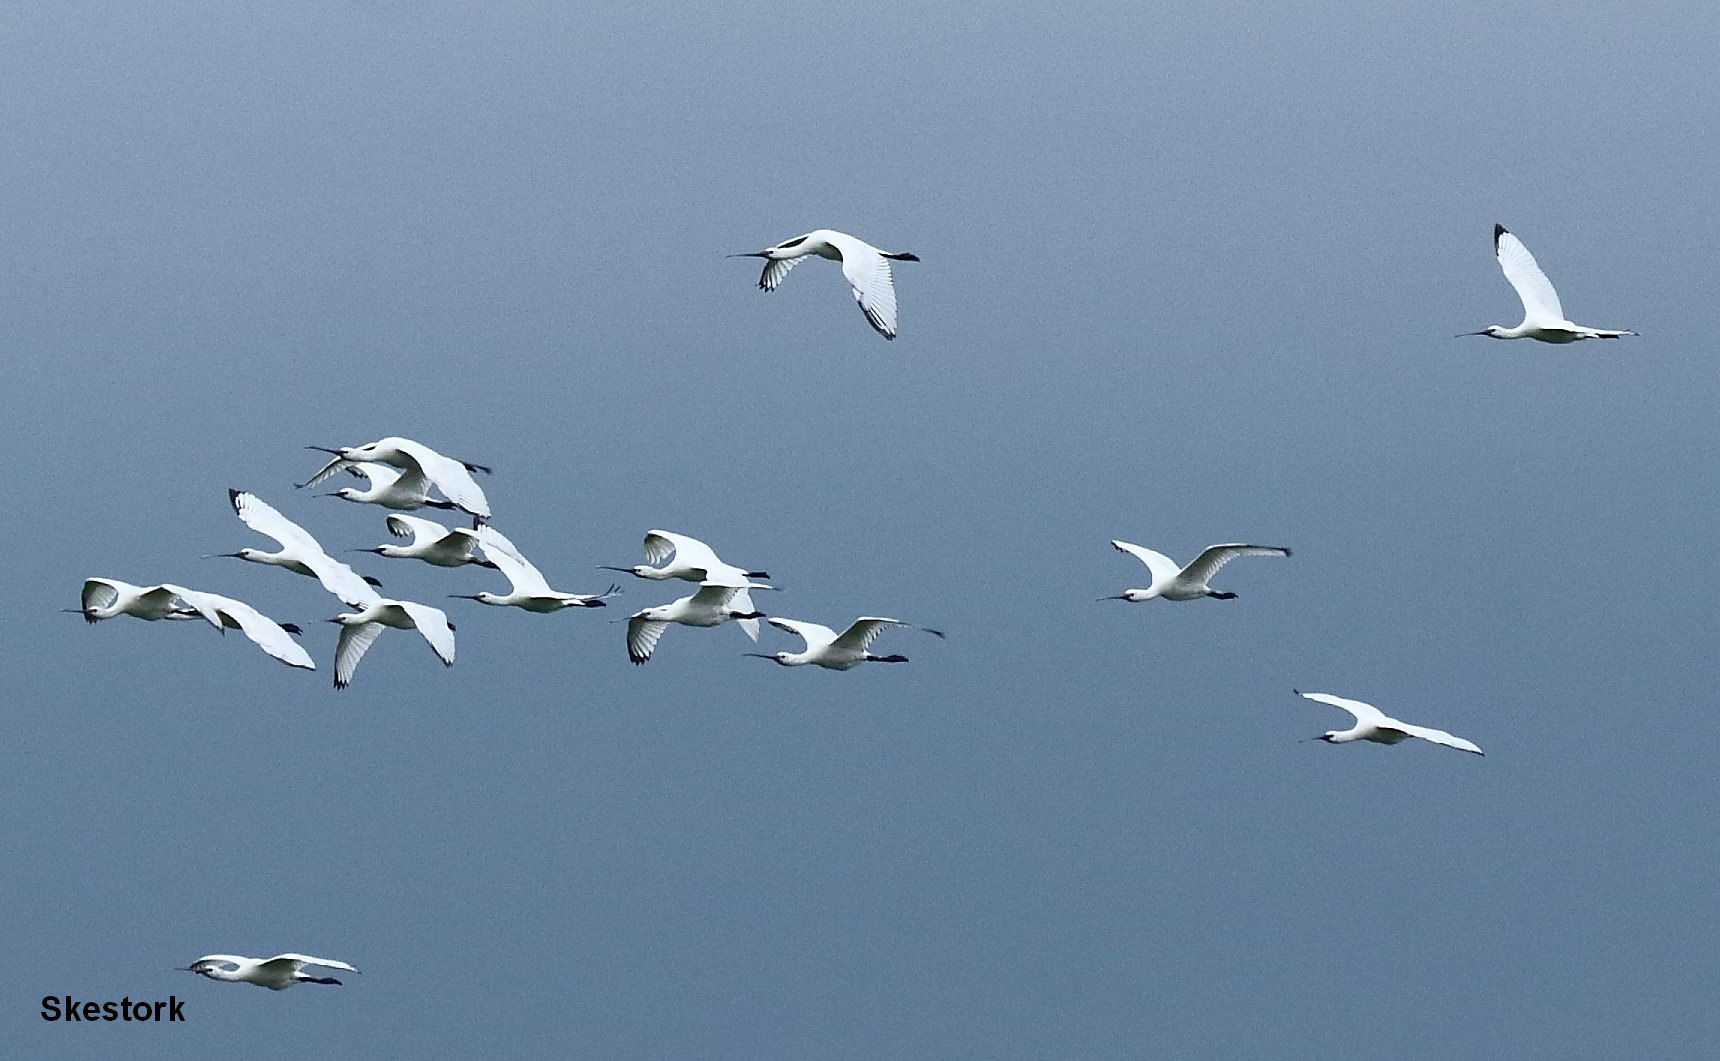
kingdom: Animalia
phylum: Chordata
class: Aves
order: Pelecaniformes
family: Threskiornithidae
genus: Platalea
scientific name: Platalea leucorodia
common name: Skestork
